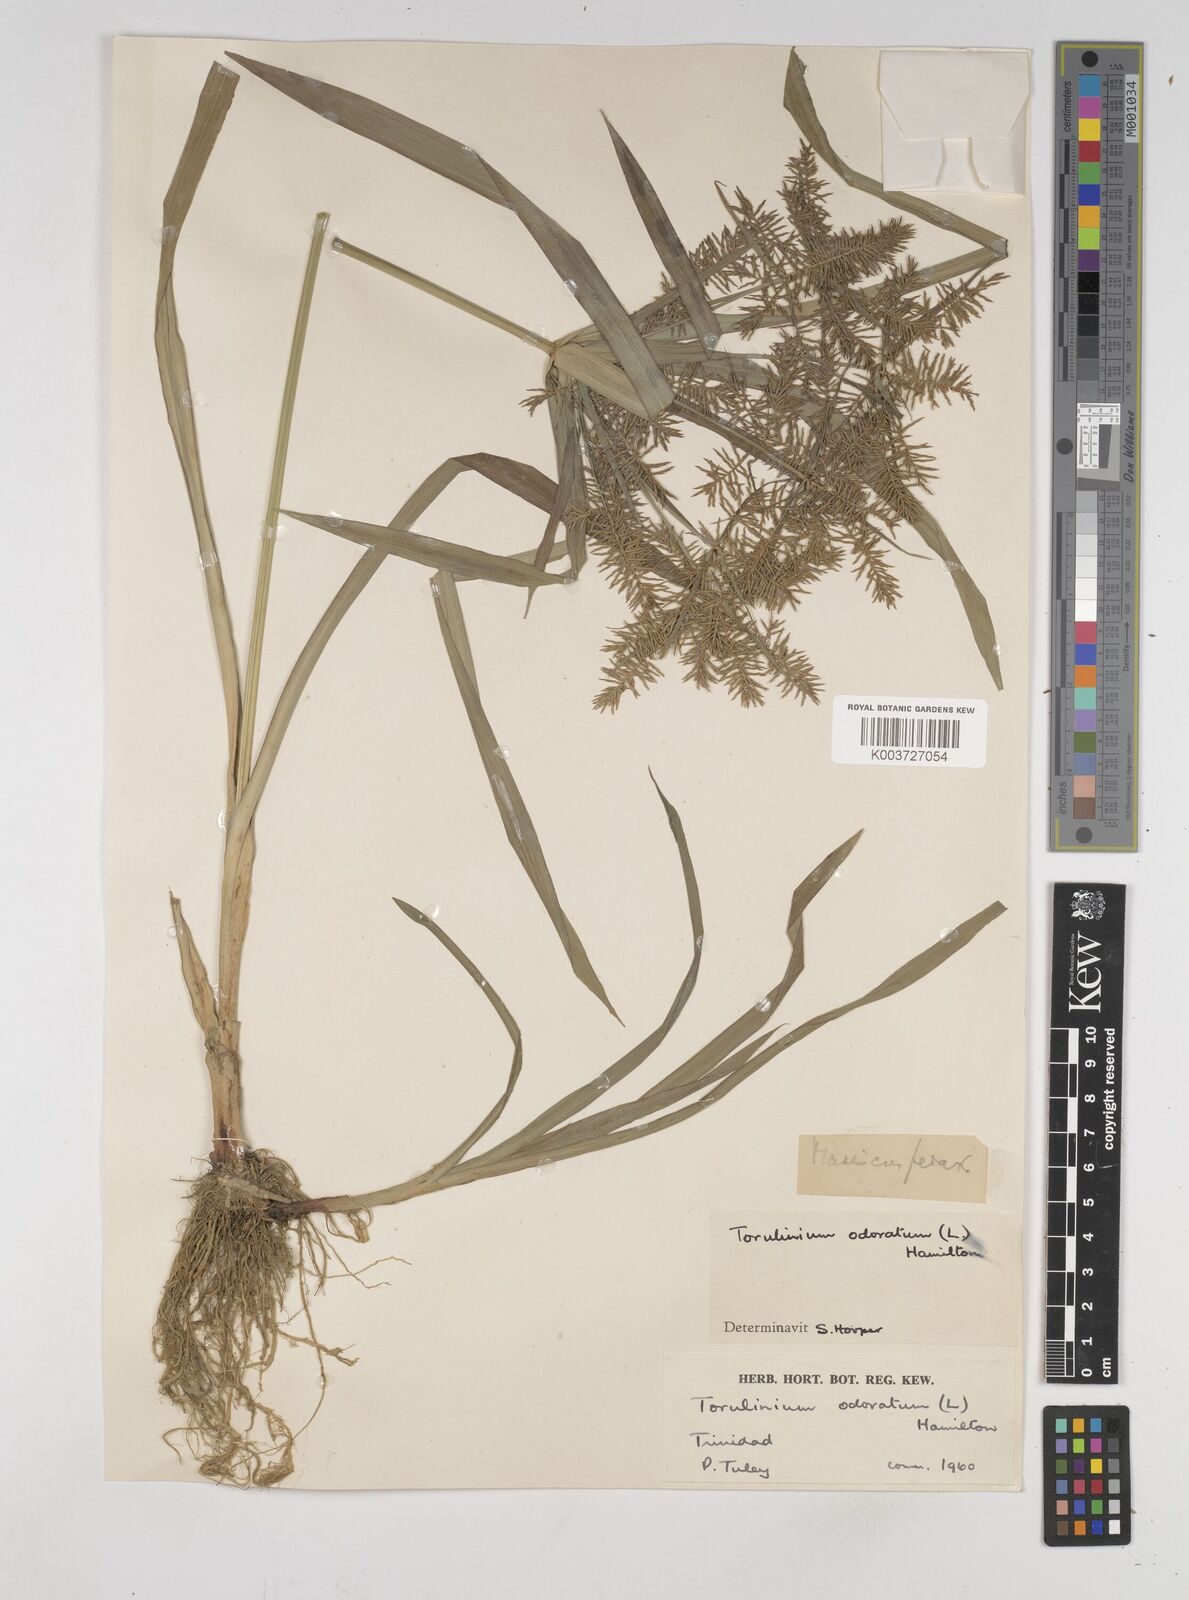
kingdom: Plantae
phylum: Tracheophyta
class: Liliopsida
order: Poales
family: Cyperaceae
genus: Cyperus
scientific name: Cyperus odoratus
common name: Fragrant flatsedge
